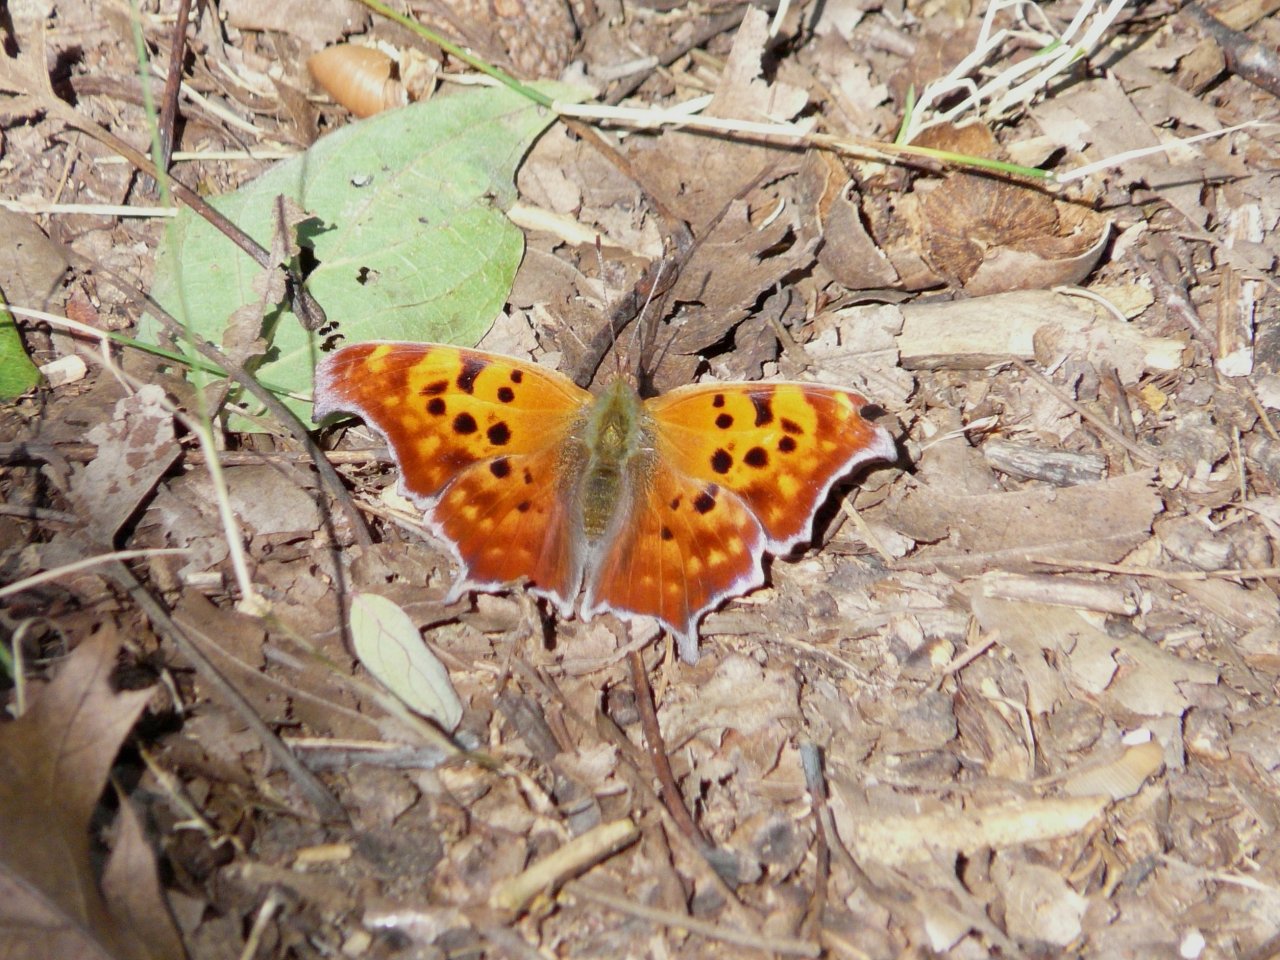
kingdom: Animalia
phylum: Arthropoda
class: Insecta
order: Lepidoptera
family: Nymphalidae
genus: Polygonia
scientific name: Polygonia interrogationis
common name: Question Mark
